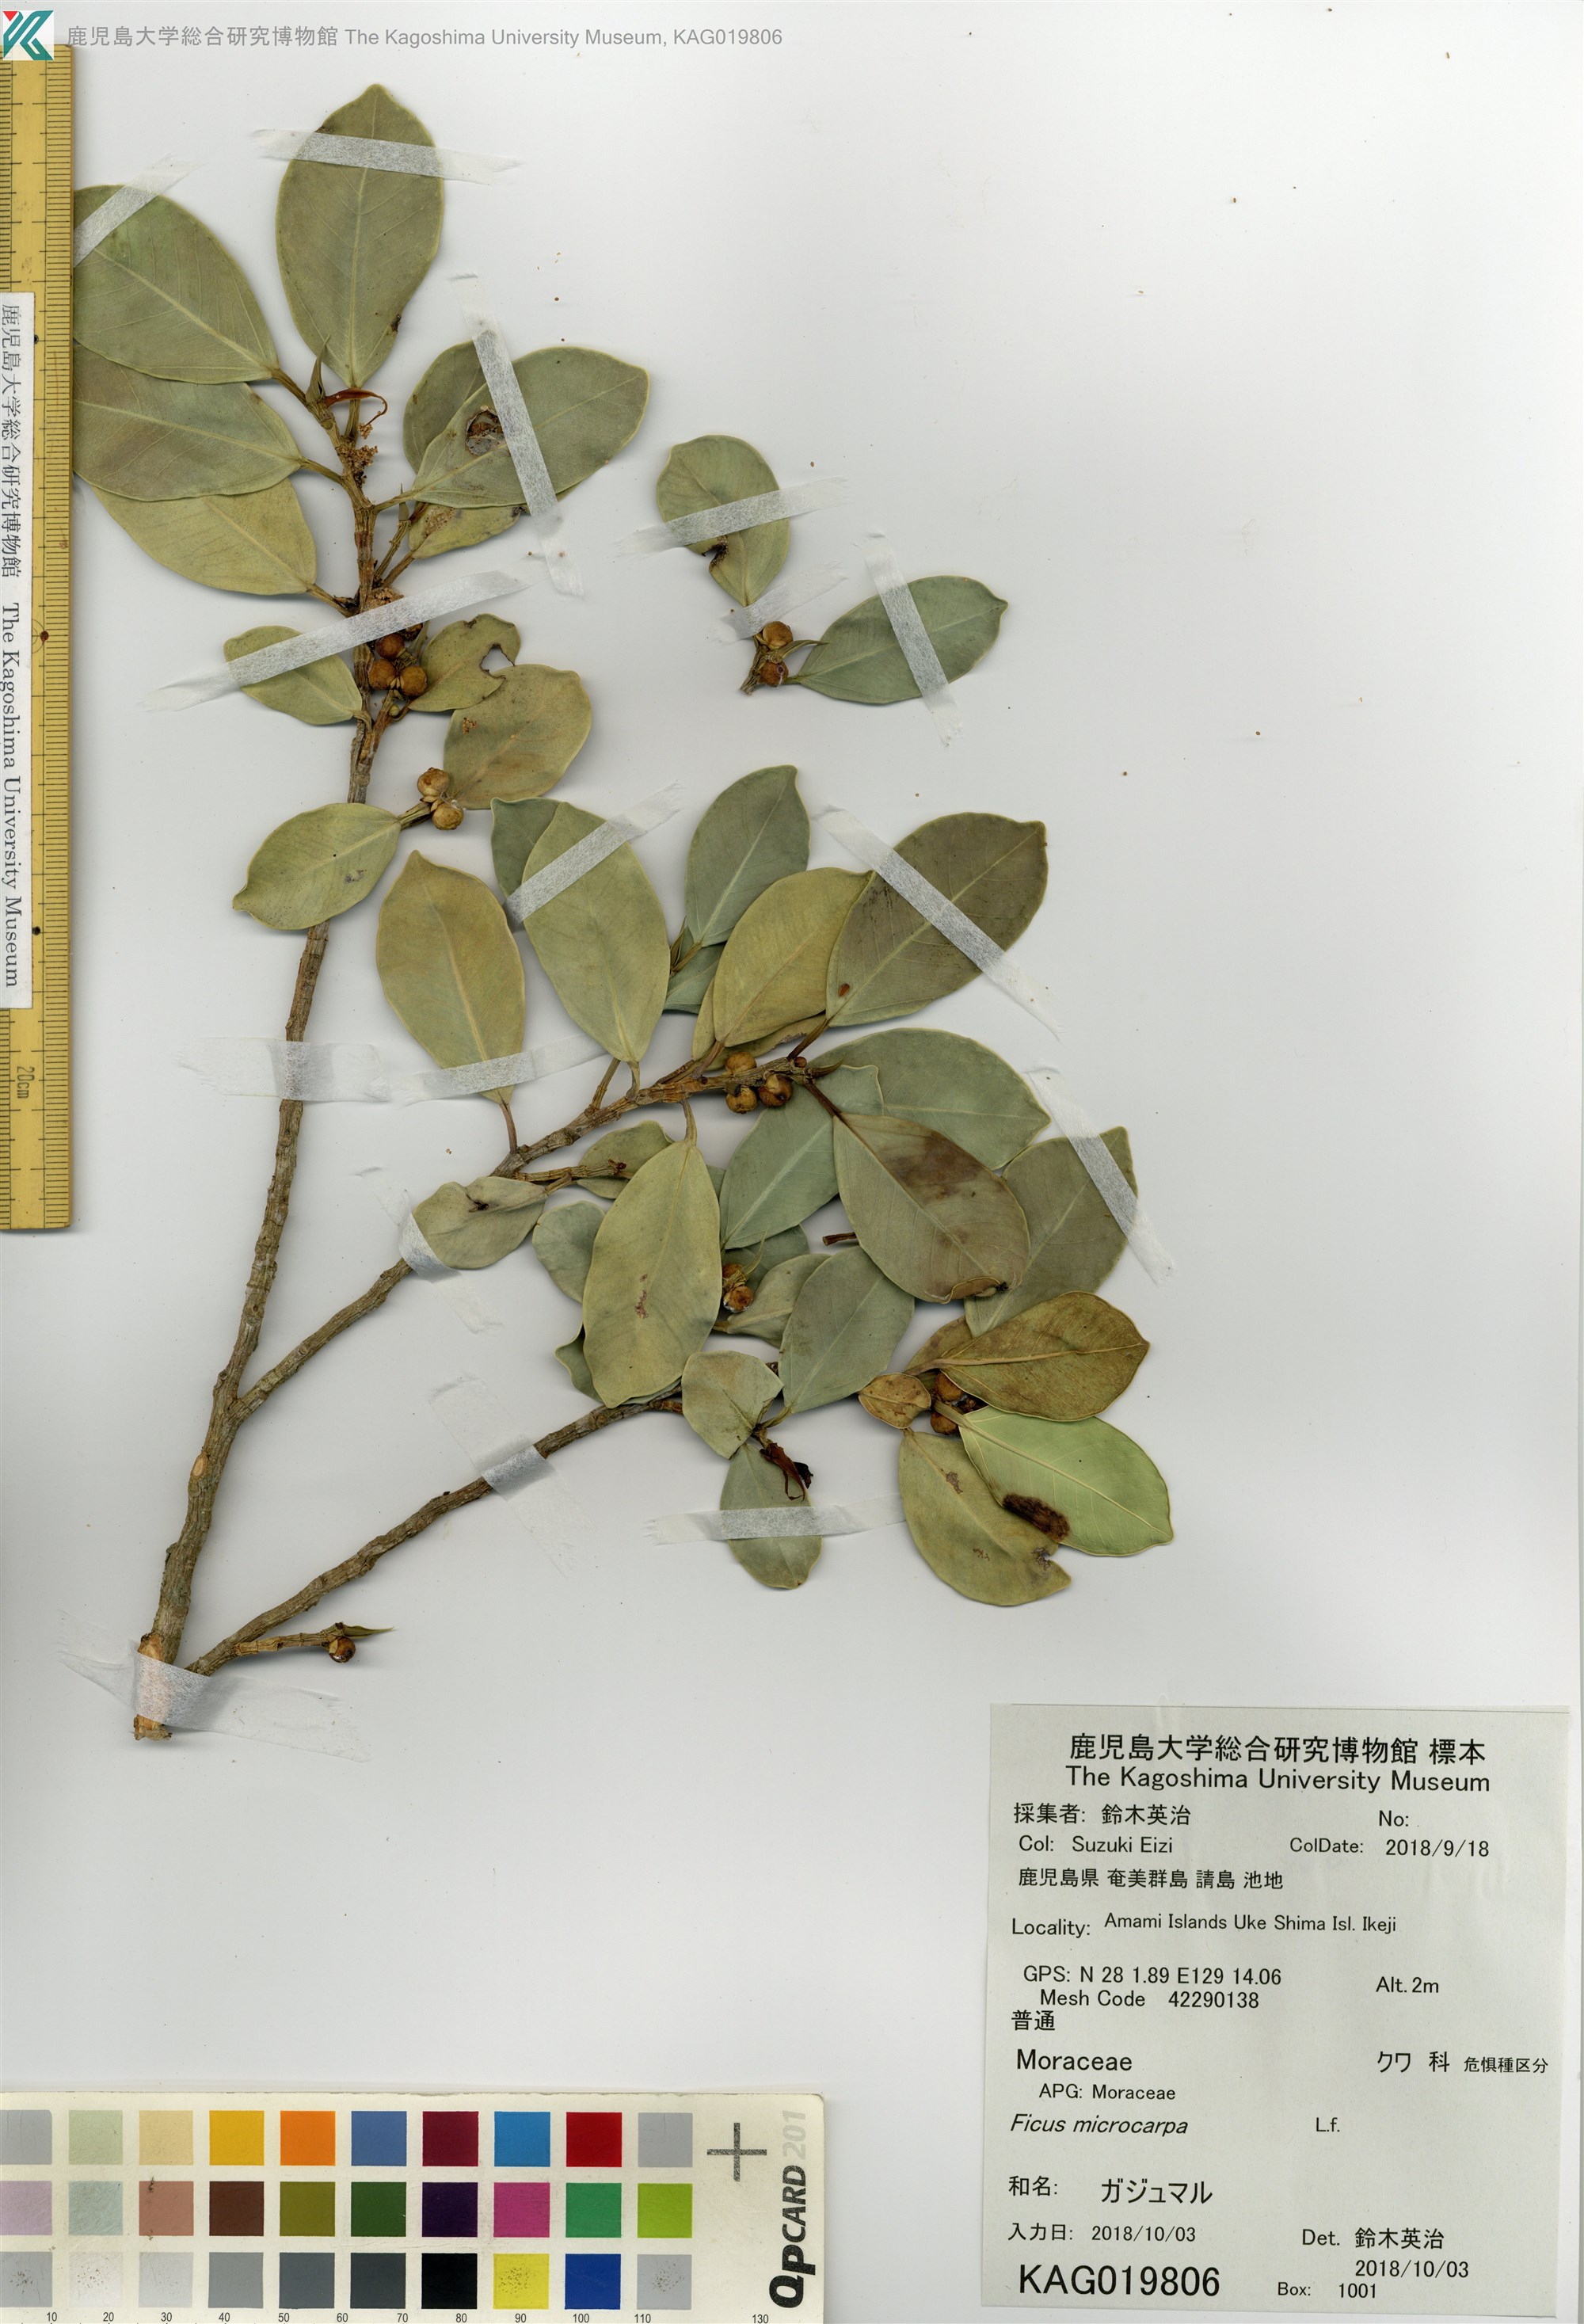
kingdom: Plantae
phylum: Tracheophyta
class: Magnoliopsida
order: Rosales
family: Moraceae
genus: Ficus
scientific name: Ficus microcarpa
